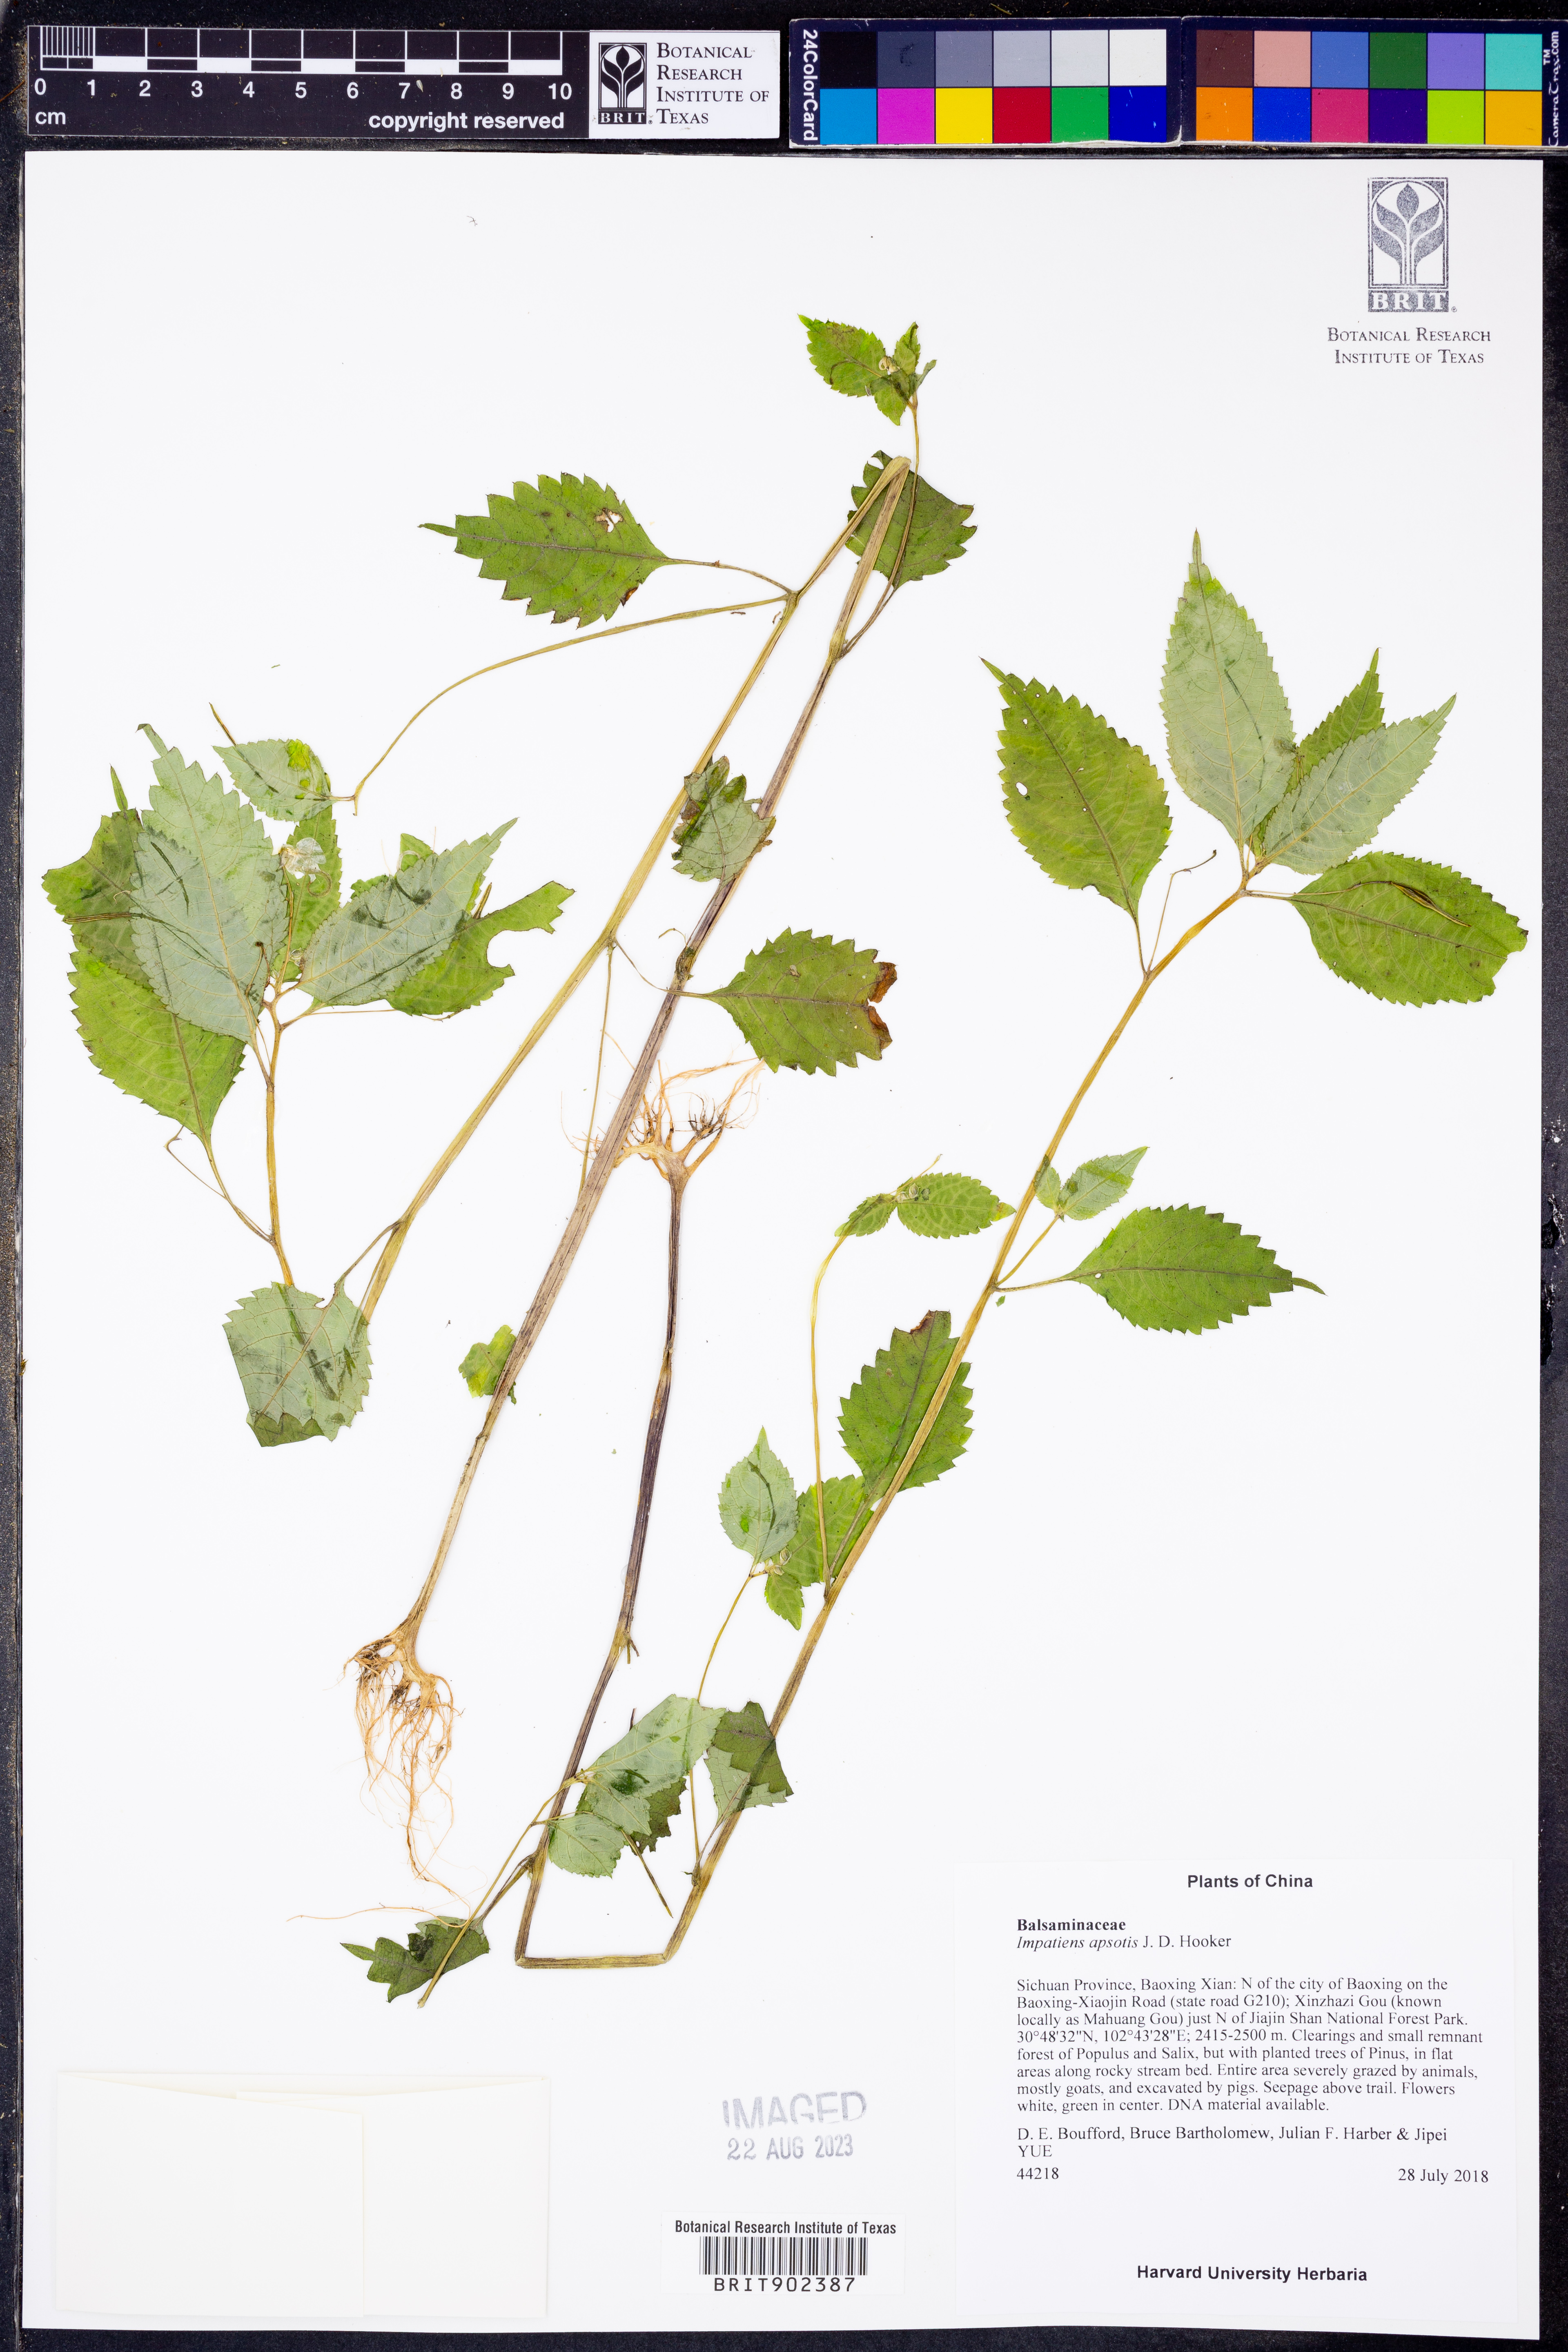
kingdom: Plantae
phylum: Tracheophyta
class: Magnoliopsida
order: Ericales
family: Balsaminaceae
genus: Impatiens
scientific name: Impatiens
